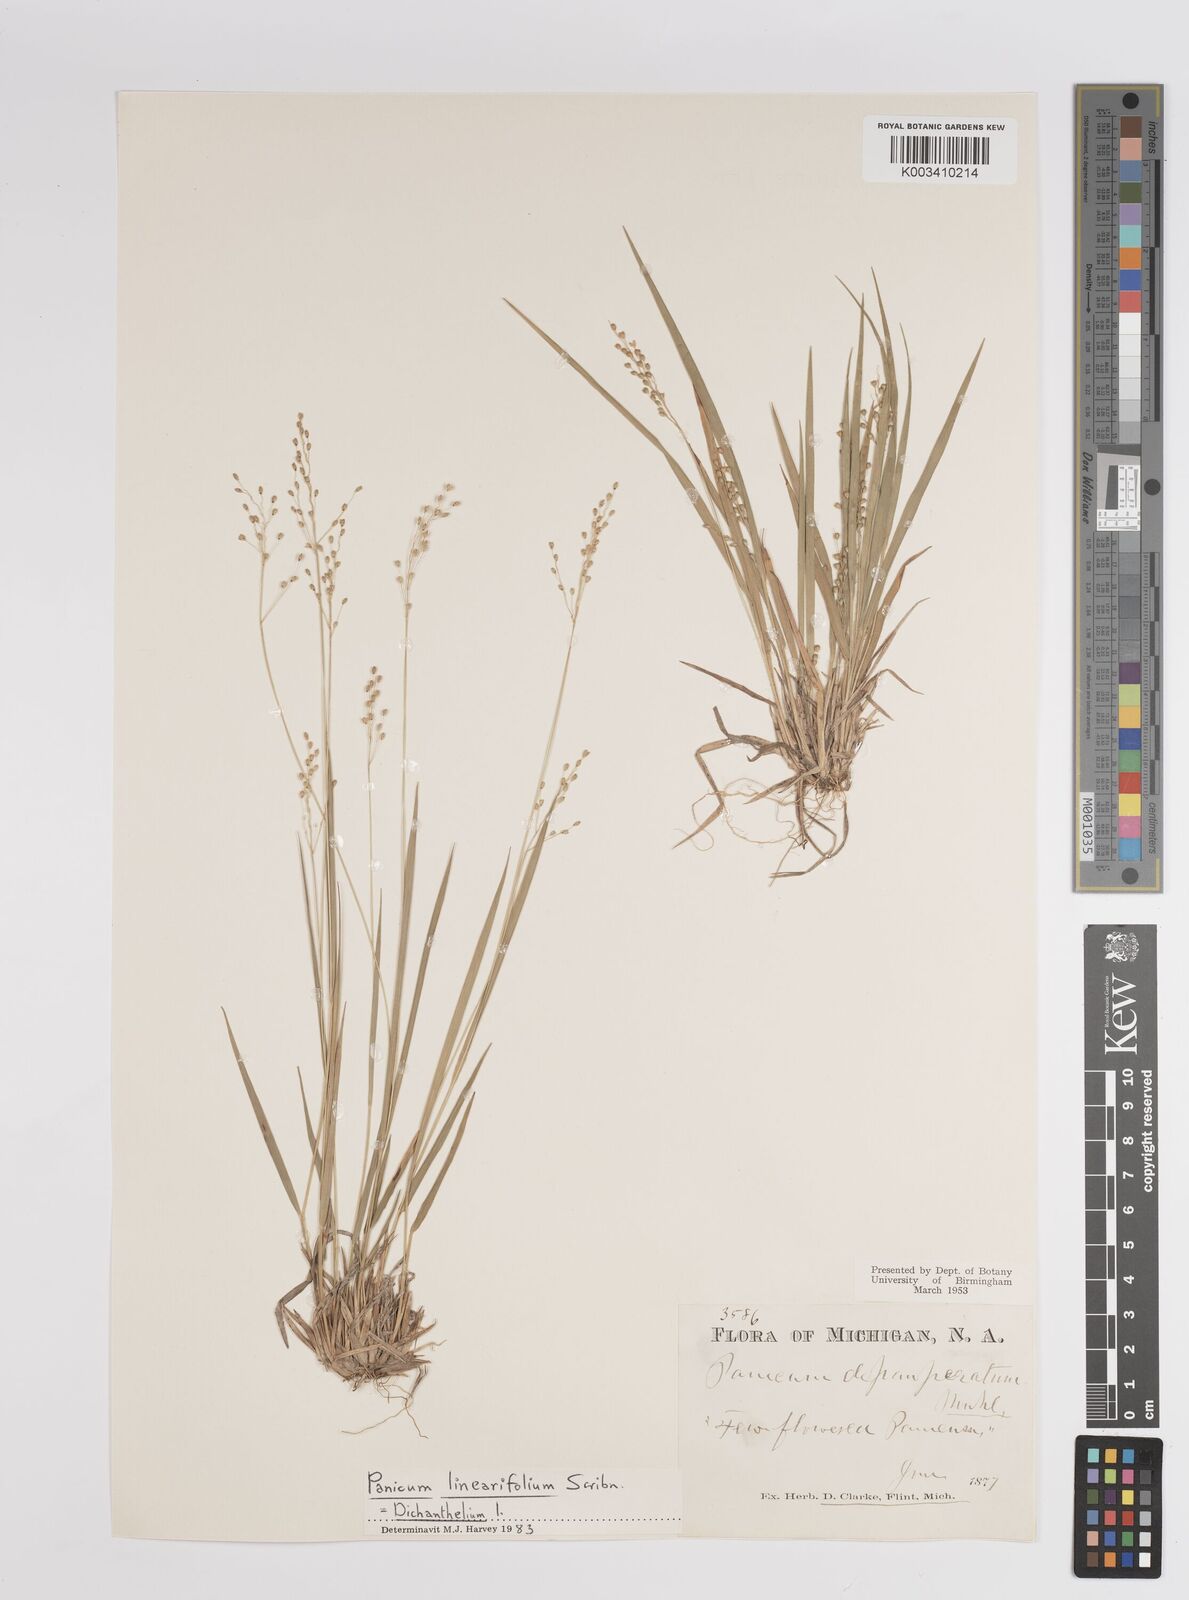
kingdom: Plantae
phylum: Tracheophyta
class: Liliopsida
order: Poales
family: Poaceae
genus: Dichanthelium
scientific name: Dichanthelium linearifolium
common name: Linear-leaved panicgrass
